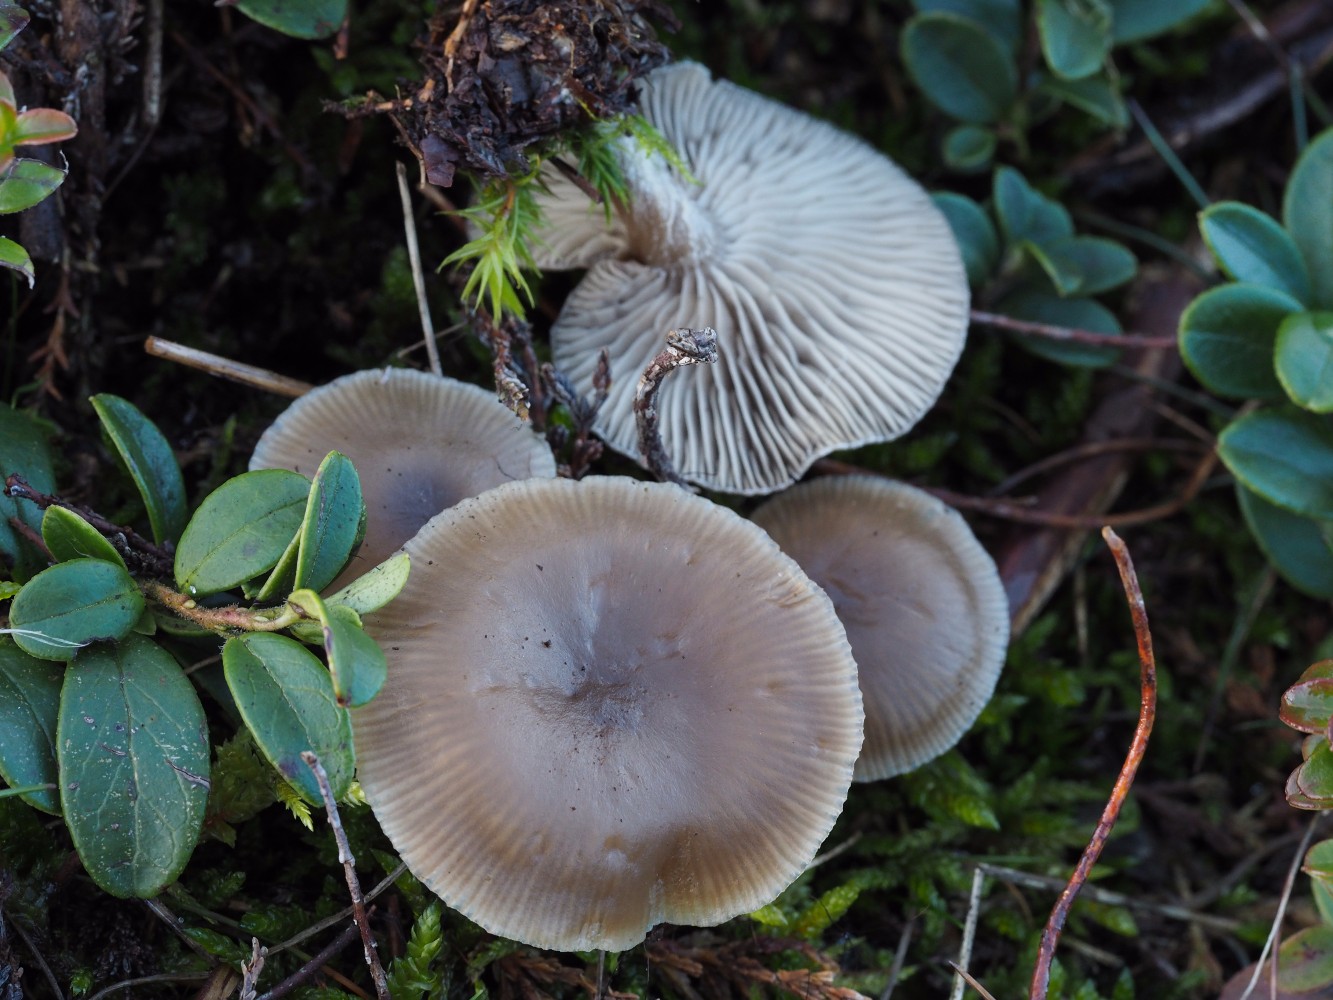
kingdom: Fungi
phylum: Basidiomycota
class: Agaricomycetes
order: Agaricales
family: Tricholomataceae
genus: Clitocybe
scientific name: Clitocybe
